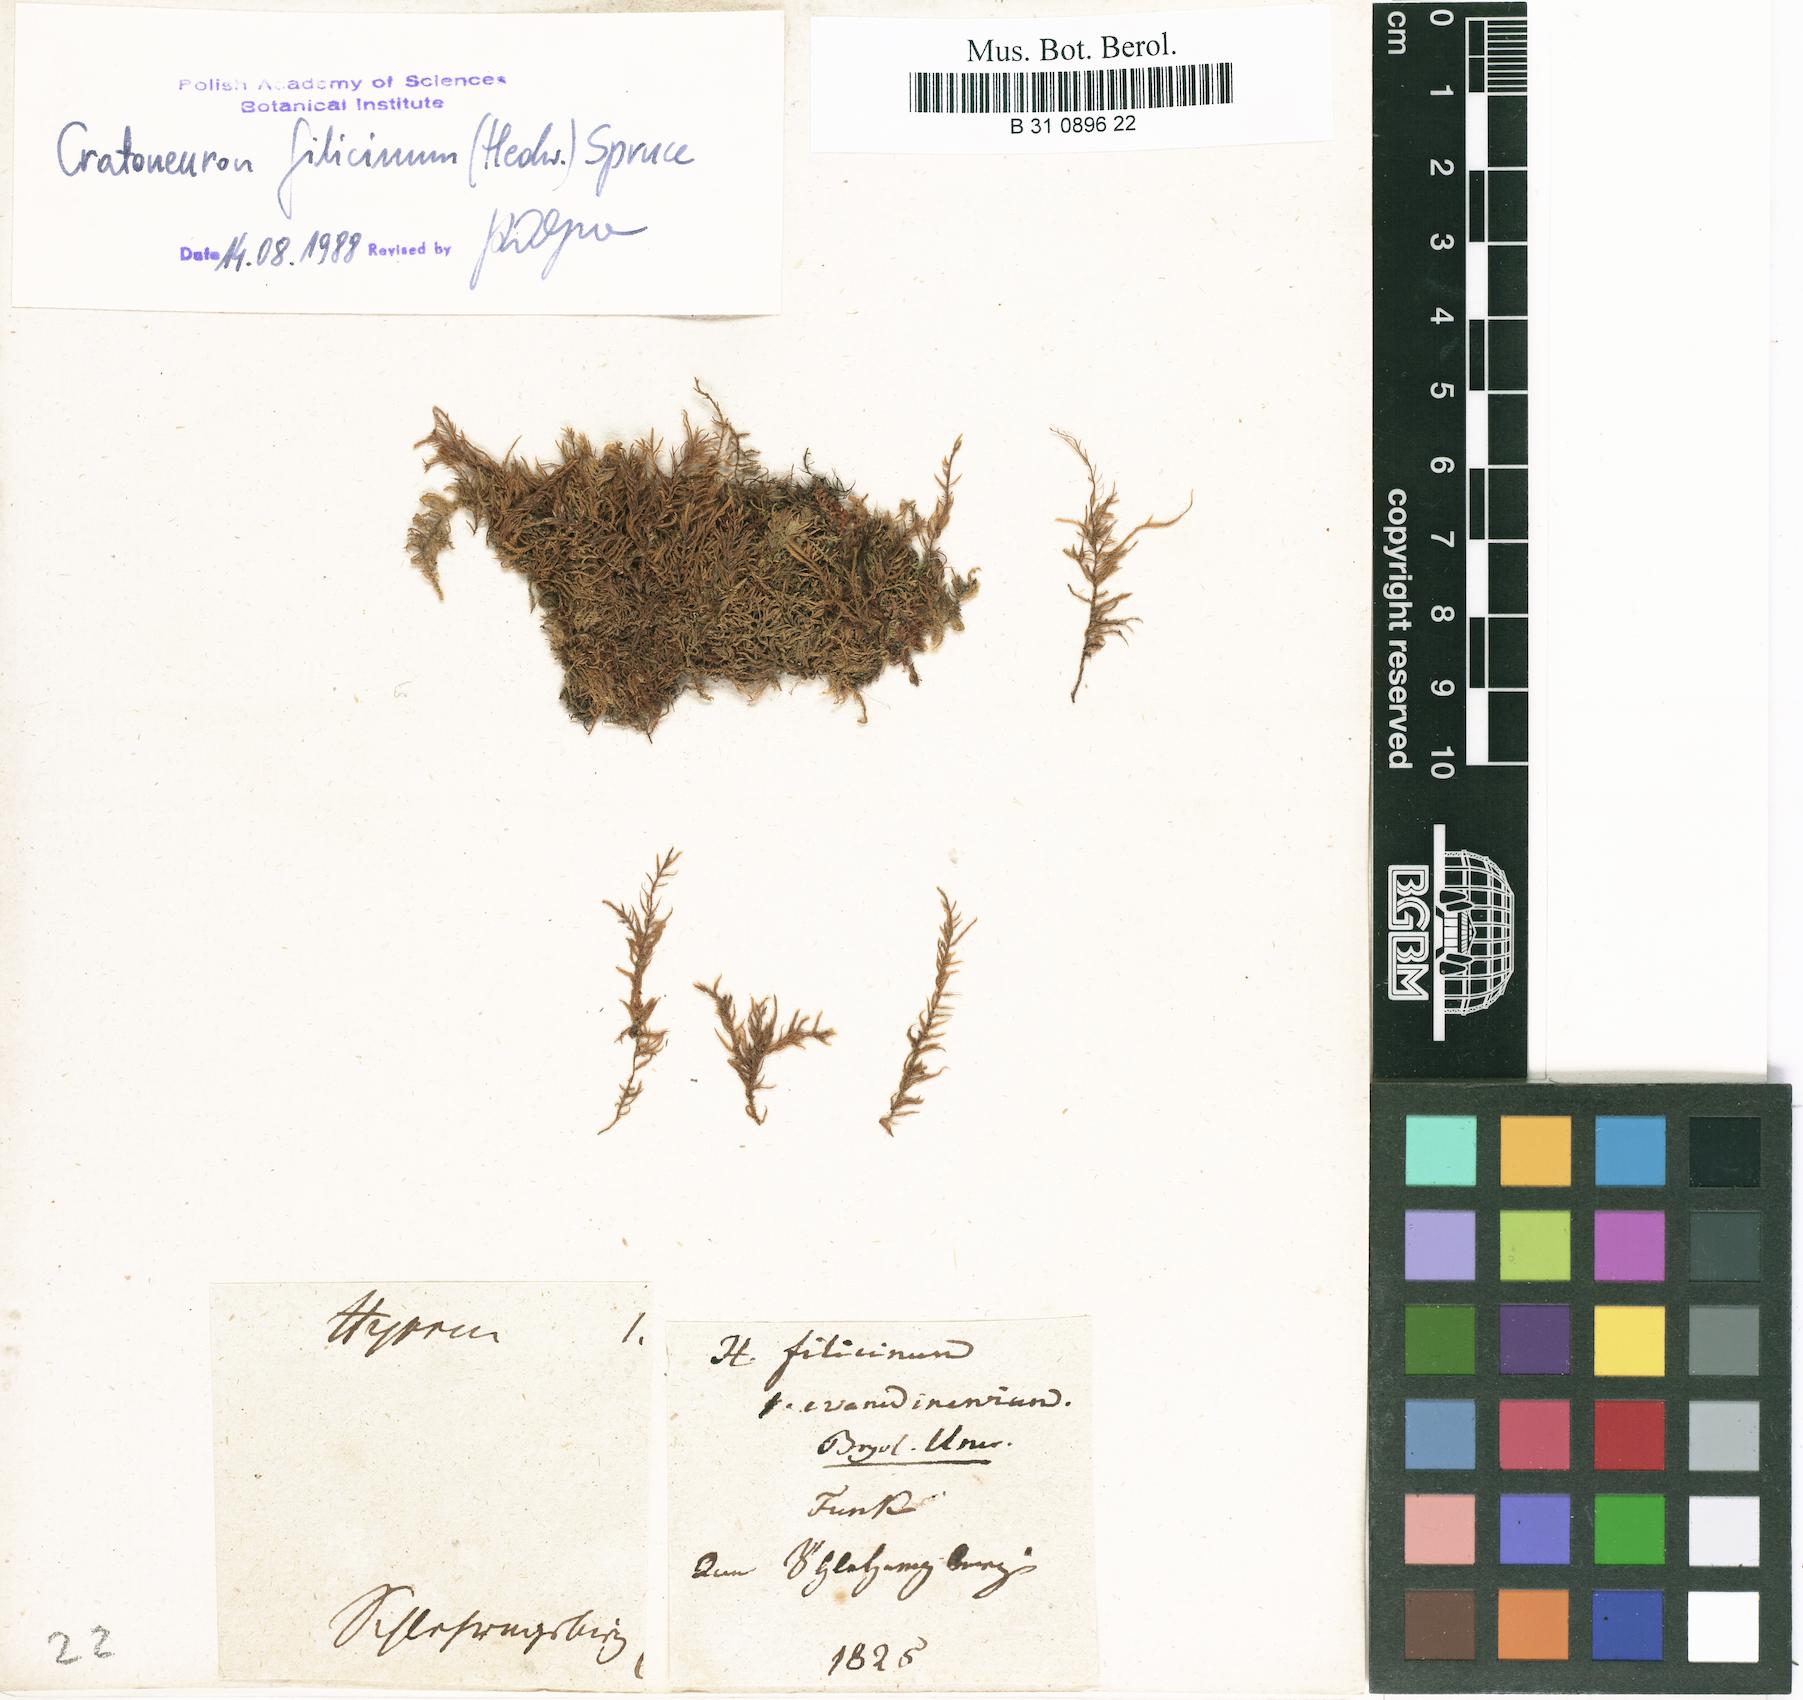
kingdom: Plantae
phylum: Bryophyta
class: Bryopsida
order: Hypnales
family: Amblystegiaceae
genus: Cratoneuron
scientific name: Cratoneuron filicinum
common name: Fern-leaved hook moss
